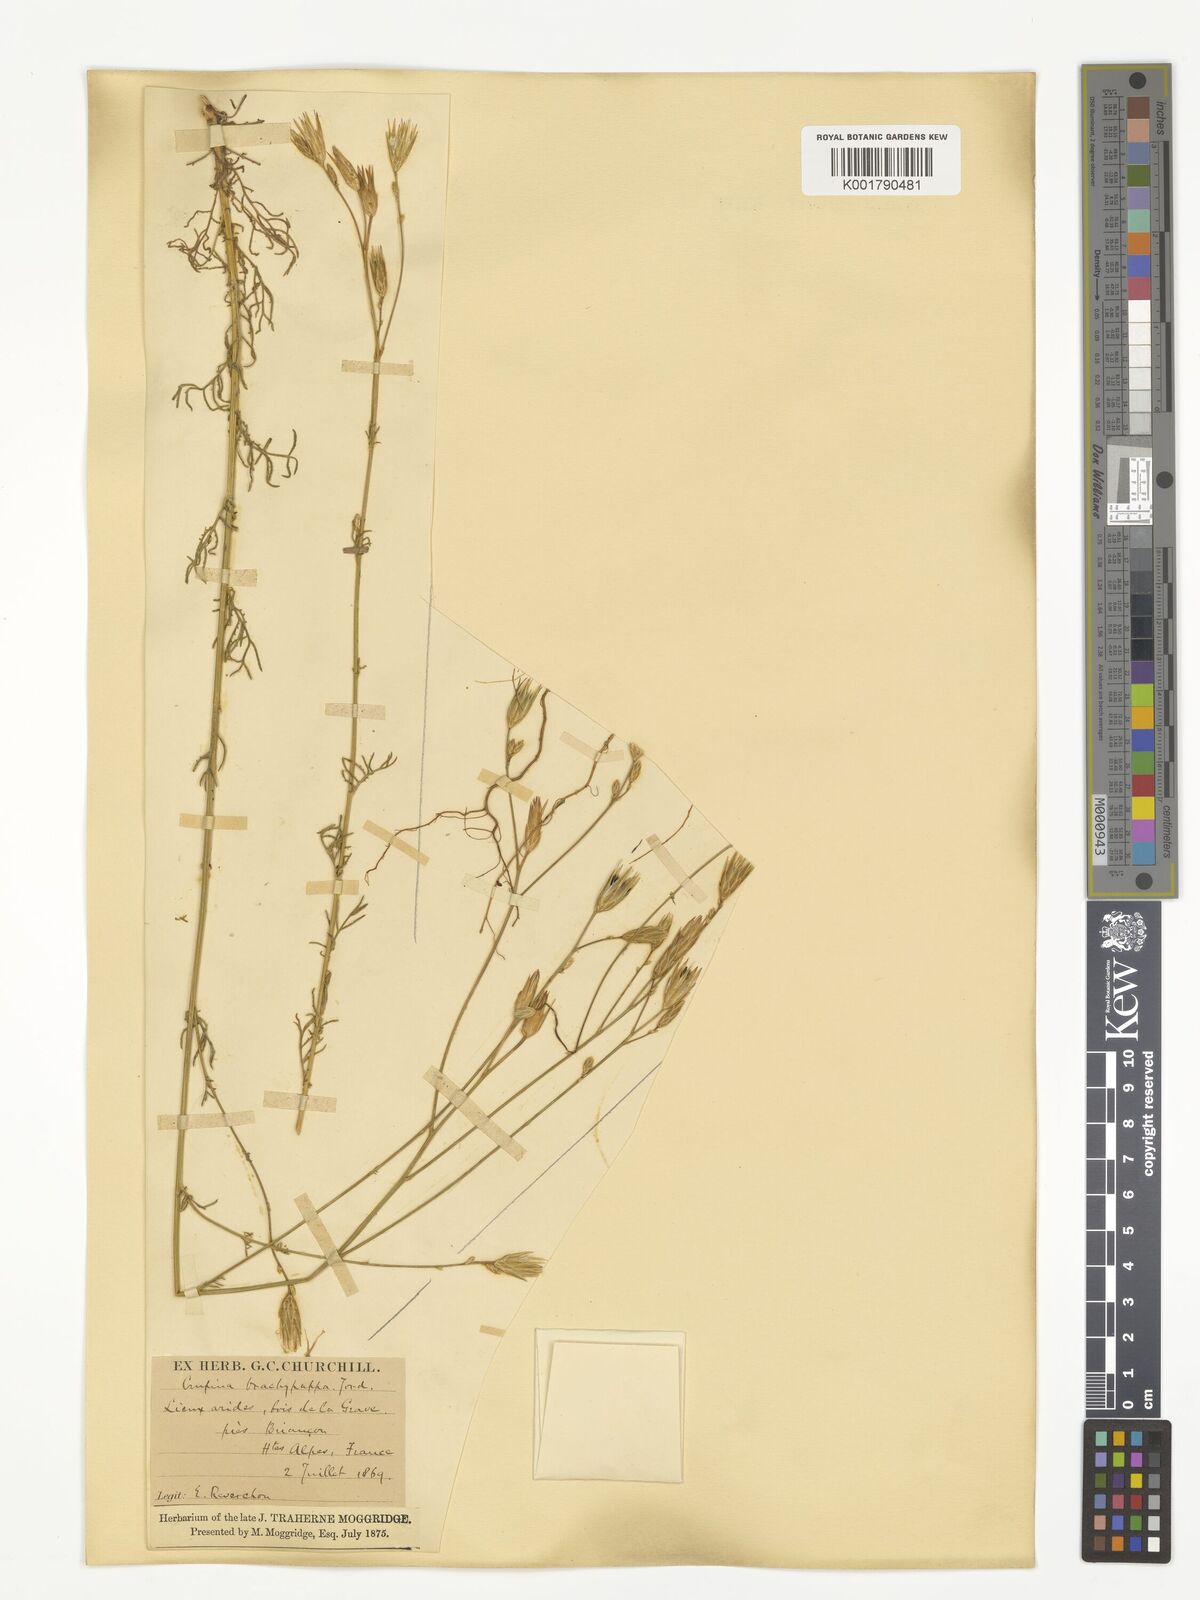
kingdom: Plantae
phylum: Tracheophyta
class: Magnoliopsida
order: Asterales
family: Asteraceae
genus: Crupina
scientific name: Crupina vulgaris
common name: Common crupina
